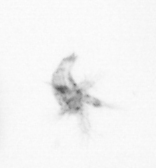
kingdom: Animalia
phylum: Arthropoda
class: Copepoda
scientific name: Copepoda
